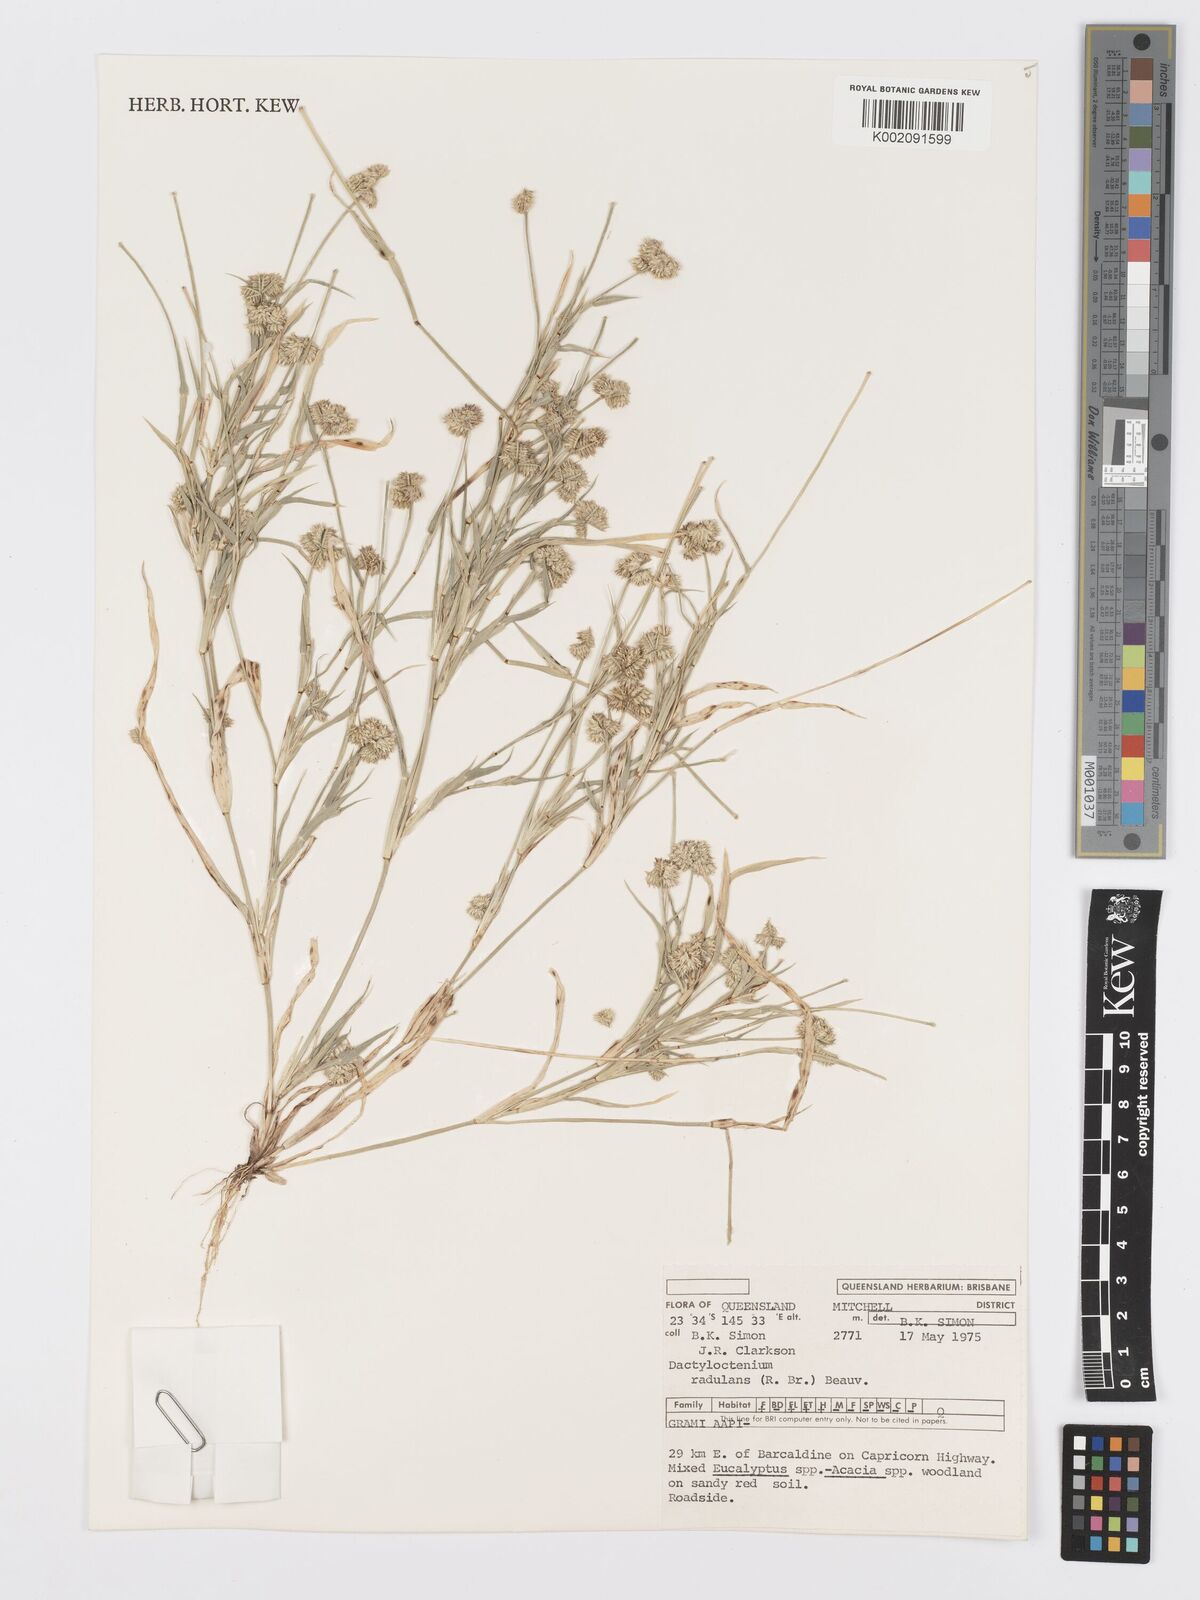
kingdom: Plantae
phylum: Tracheophyta
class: Liliopsida
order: Poales
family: Poaceae
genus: Dactyloctenium
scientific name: Dactyloctenium radulans
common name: Button-grass
